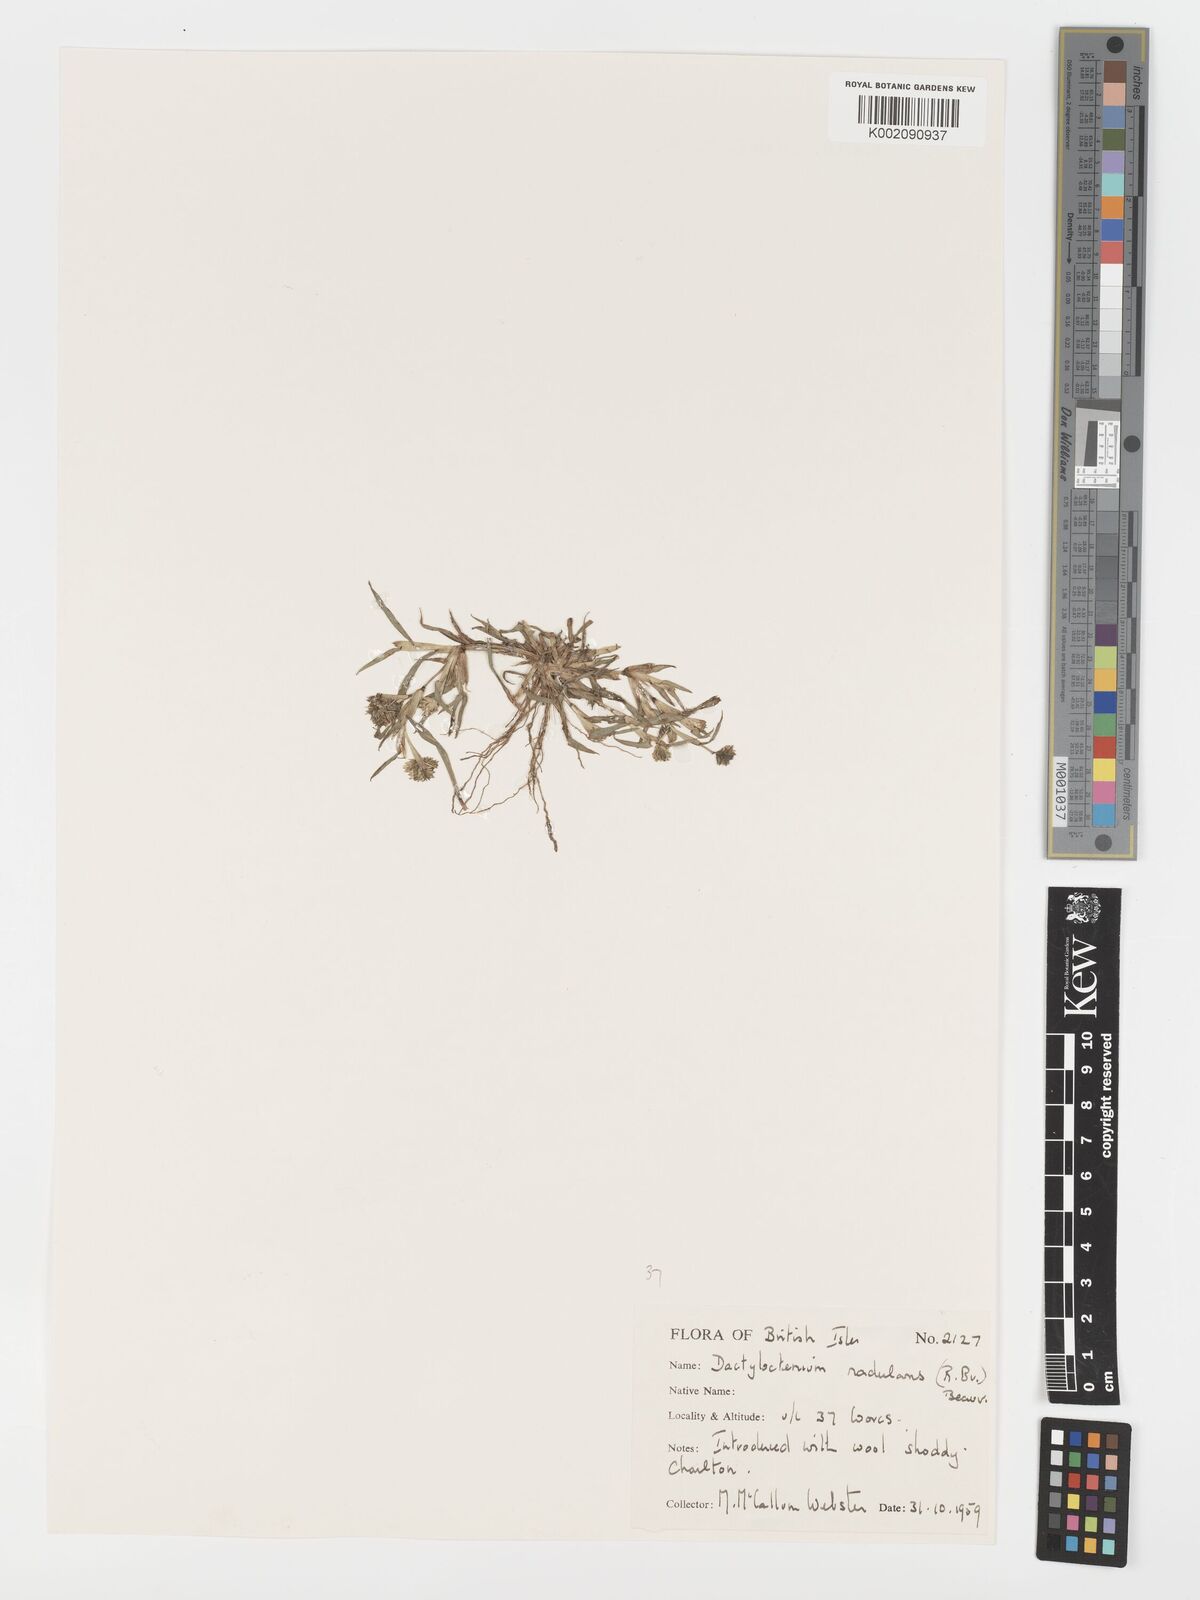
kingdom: Plantae
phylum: Tracheophyta
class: Liliopsida
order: Poales
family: Poaceae
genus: Dactyloctenium
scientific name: Dactyloctenium radulans
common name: Button-grass
